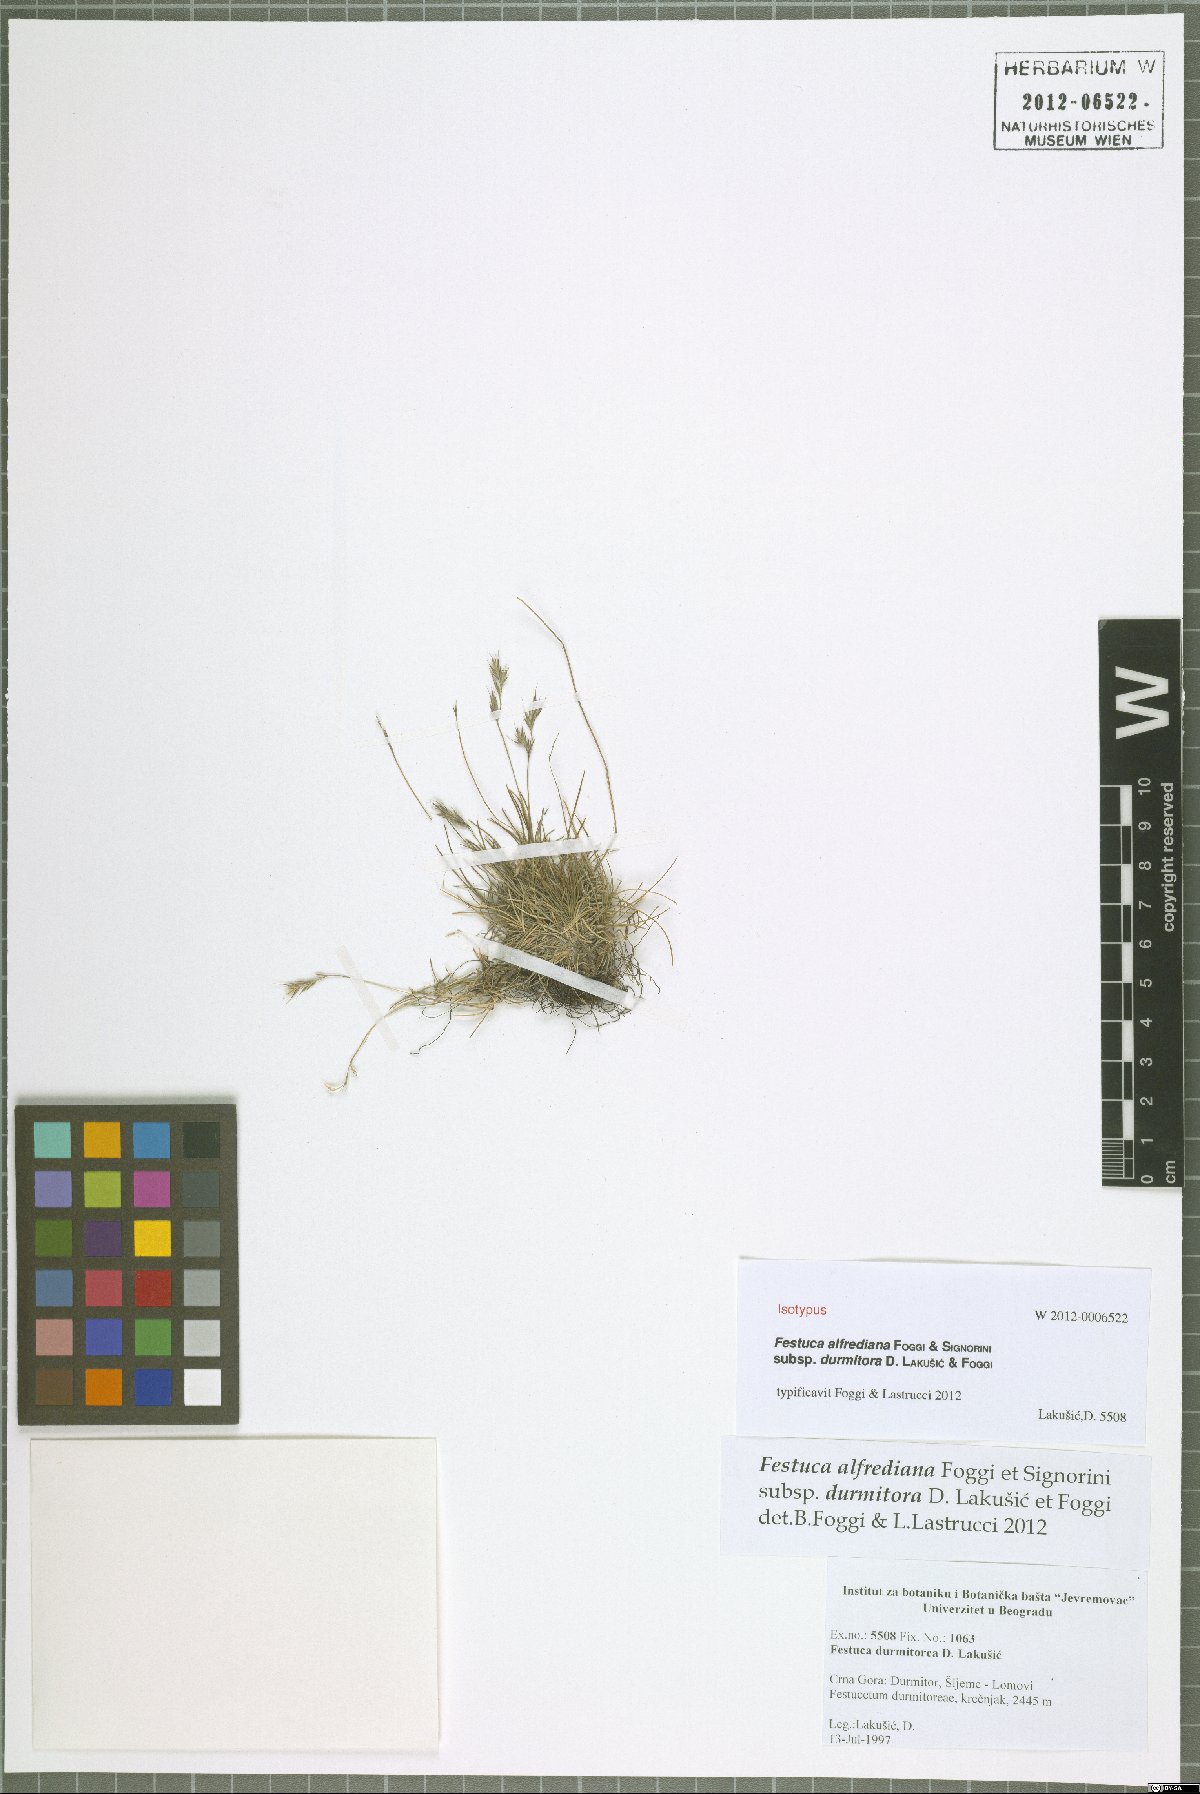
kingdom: Plantae
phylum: Tracheophyta
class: Liliopsida
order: Poales
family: Poaceae
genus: Festuca
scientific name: Festuca alfrediana
